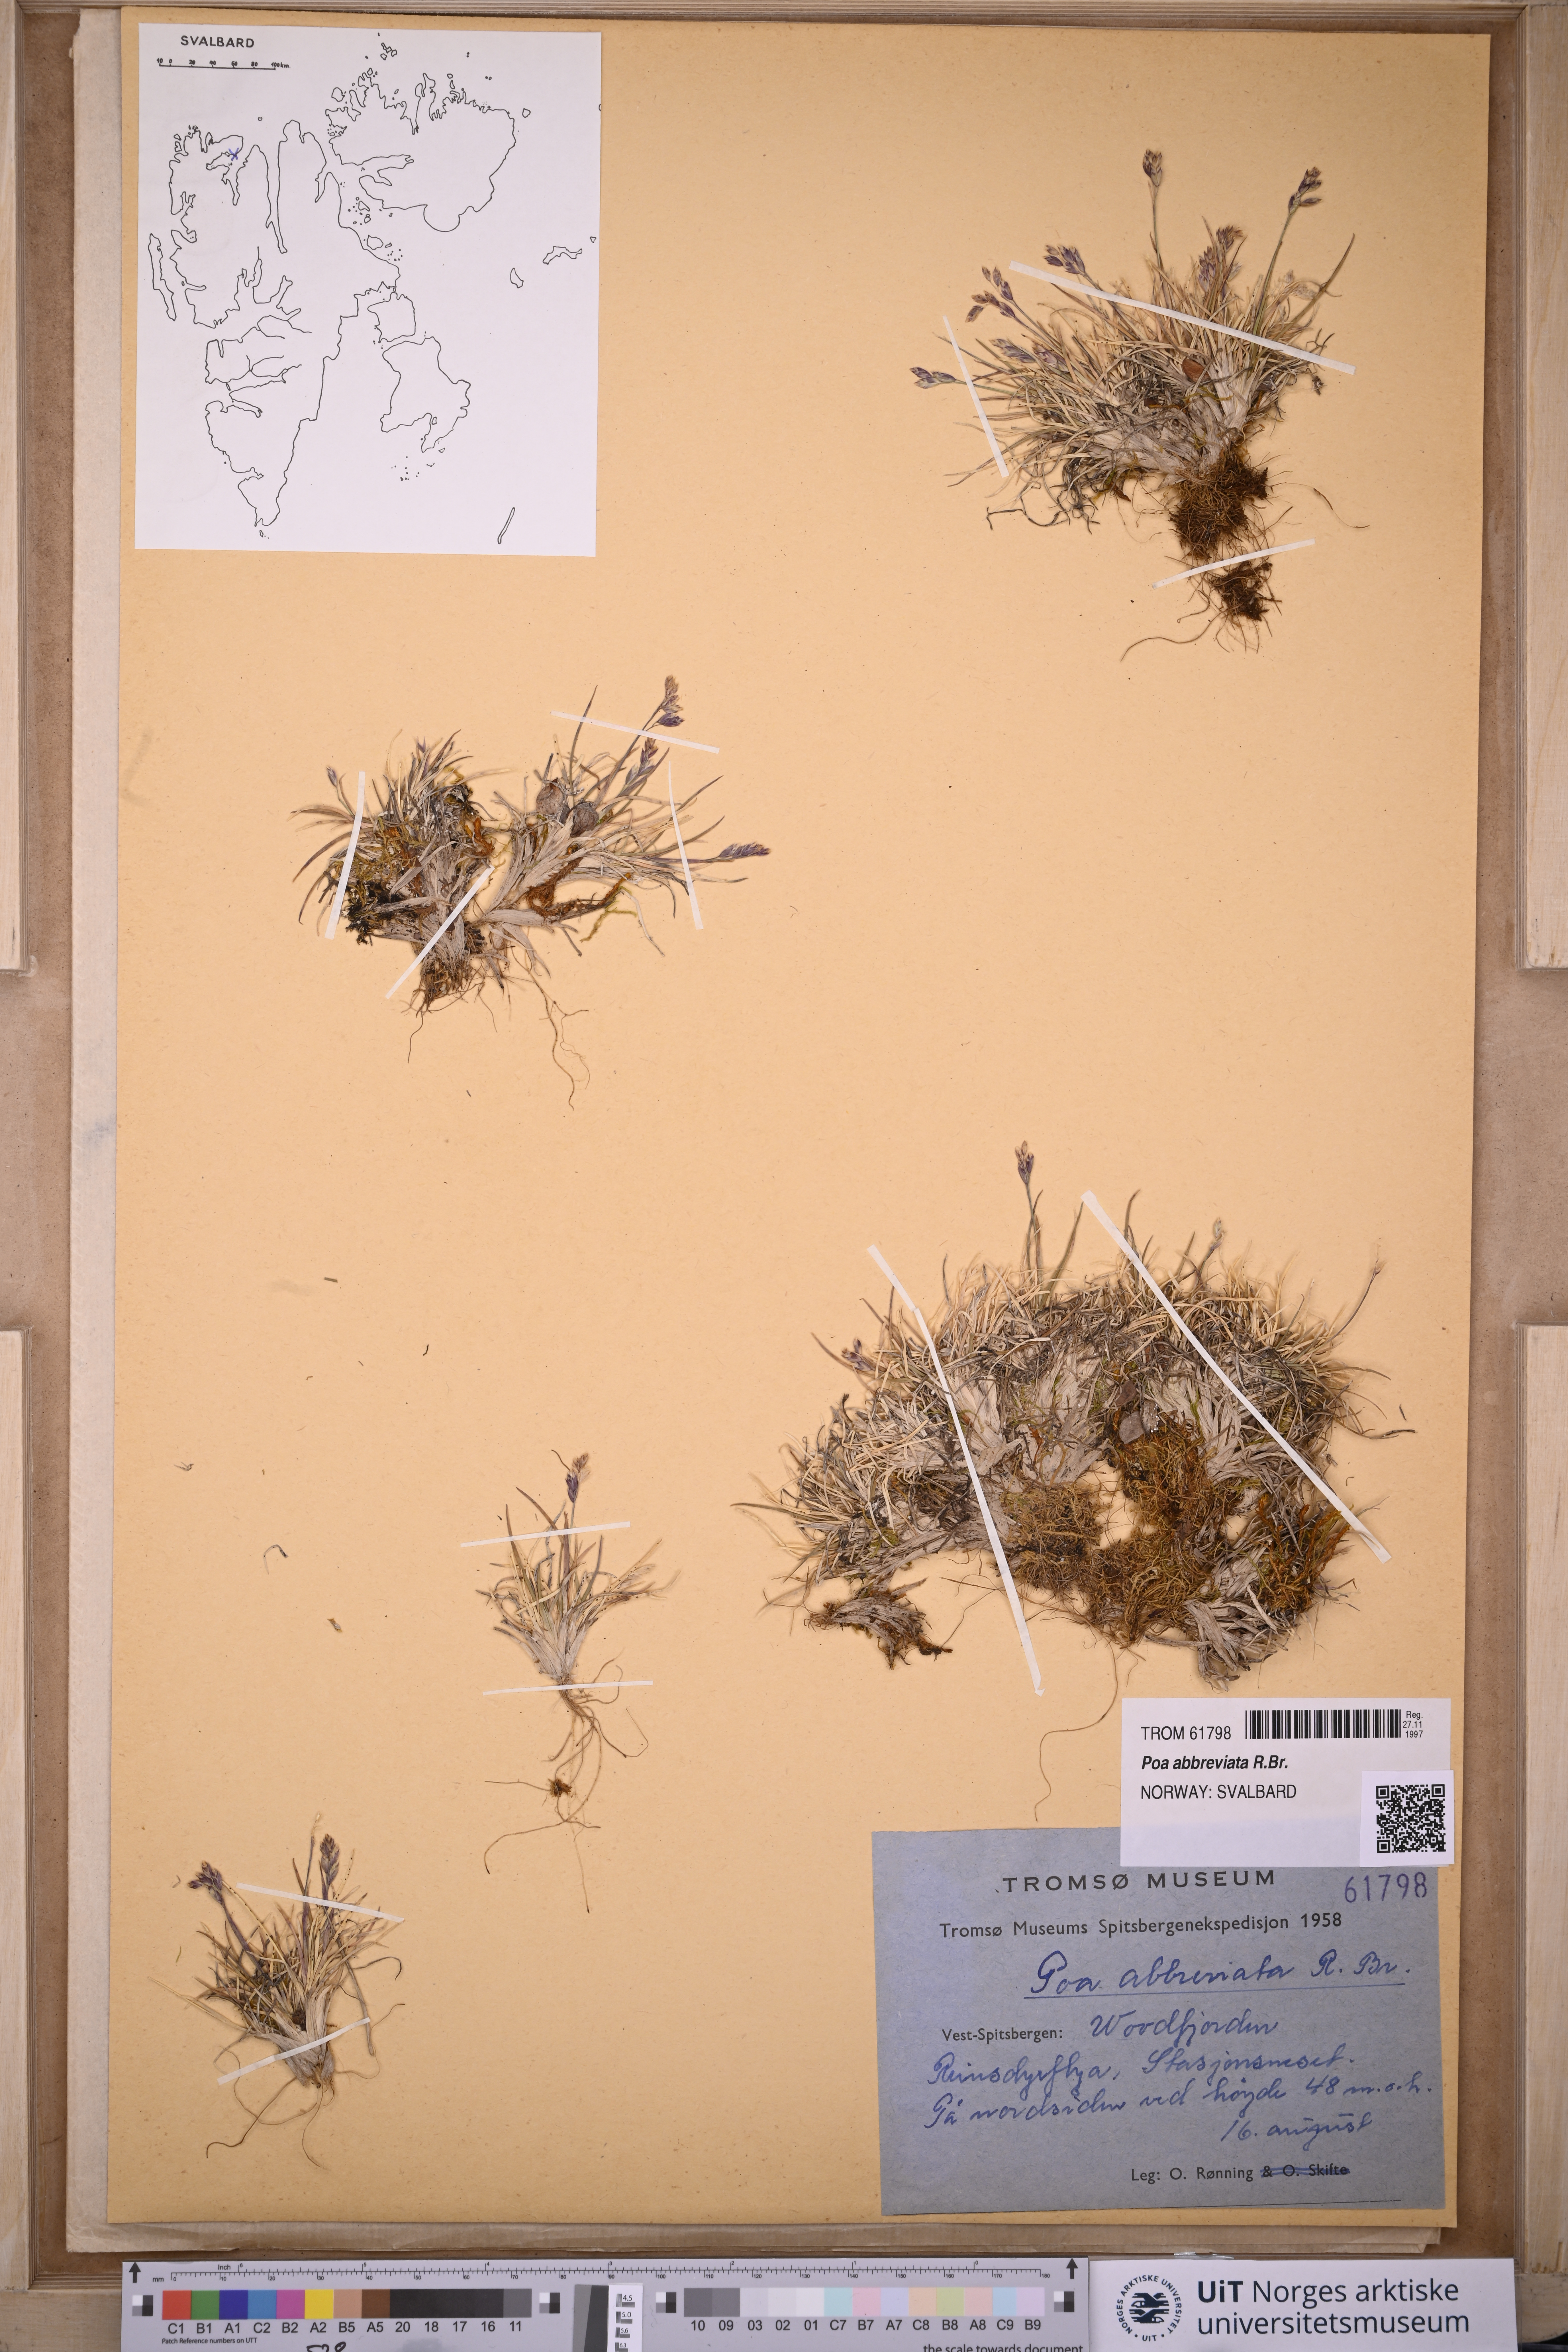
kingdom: Plantae
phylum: Tracheophyta
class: Liliopsida
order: Poales
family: Poaceae
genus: Poa
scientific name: Poa abbreviata
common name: Abbreviated bluegrass
